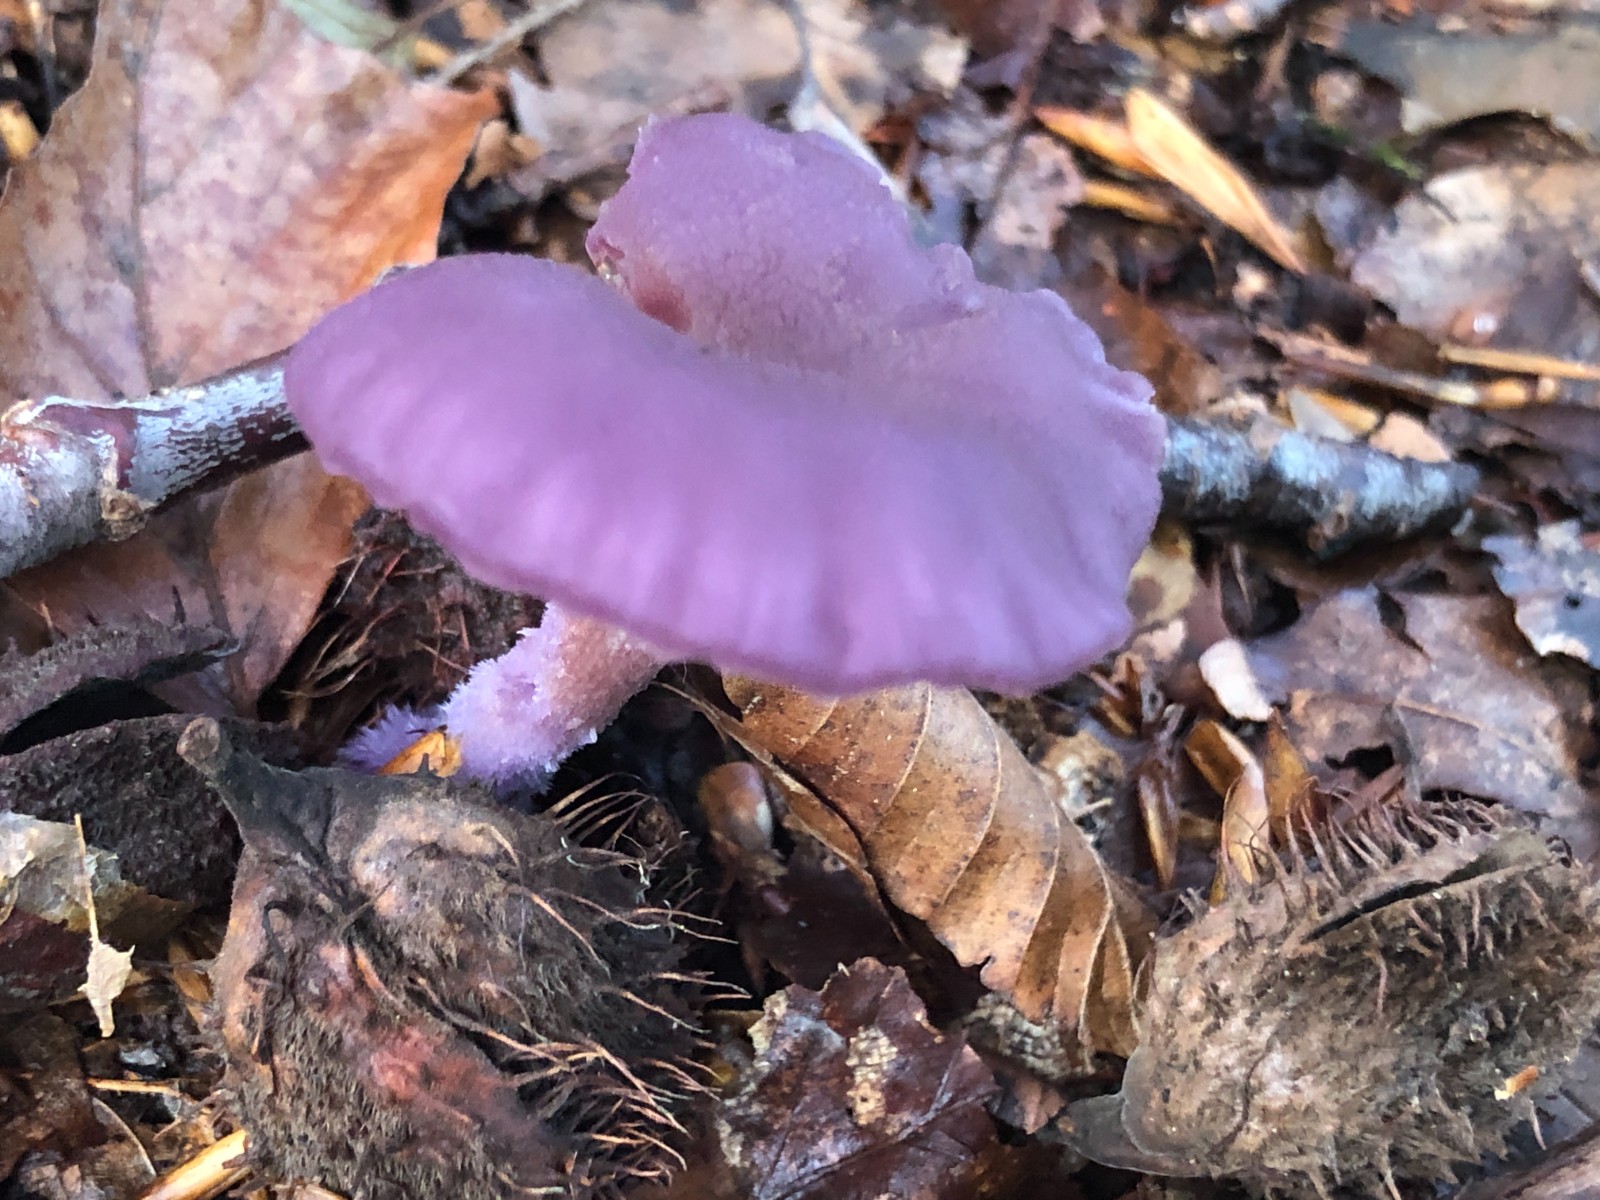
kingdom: Fungi
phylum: Basidiomycota
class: Agaricomycetes
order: Agaricales
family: Hydnangiaceae
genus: Laccaria
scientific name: Laccaria amethystina
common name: violet ametysthat
